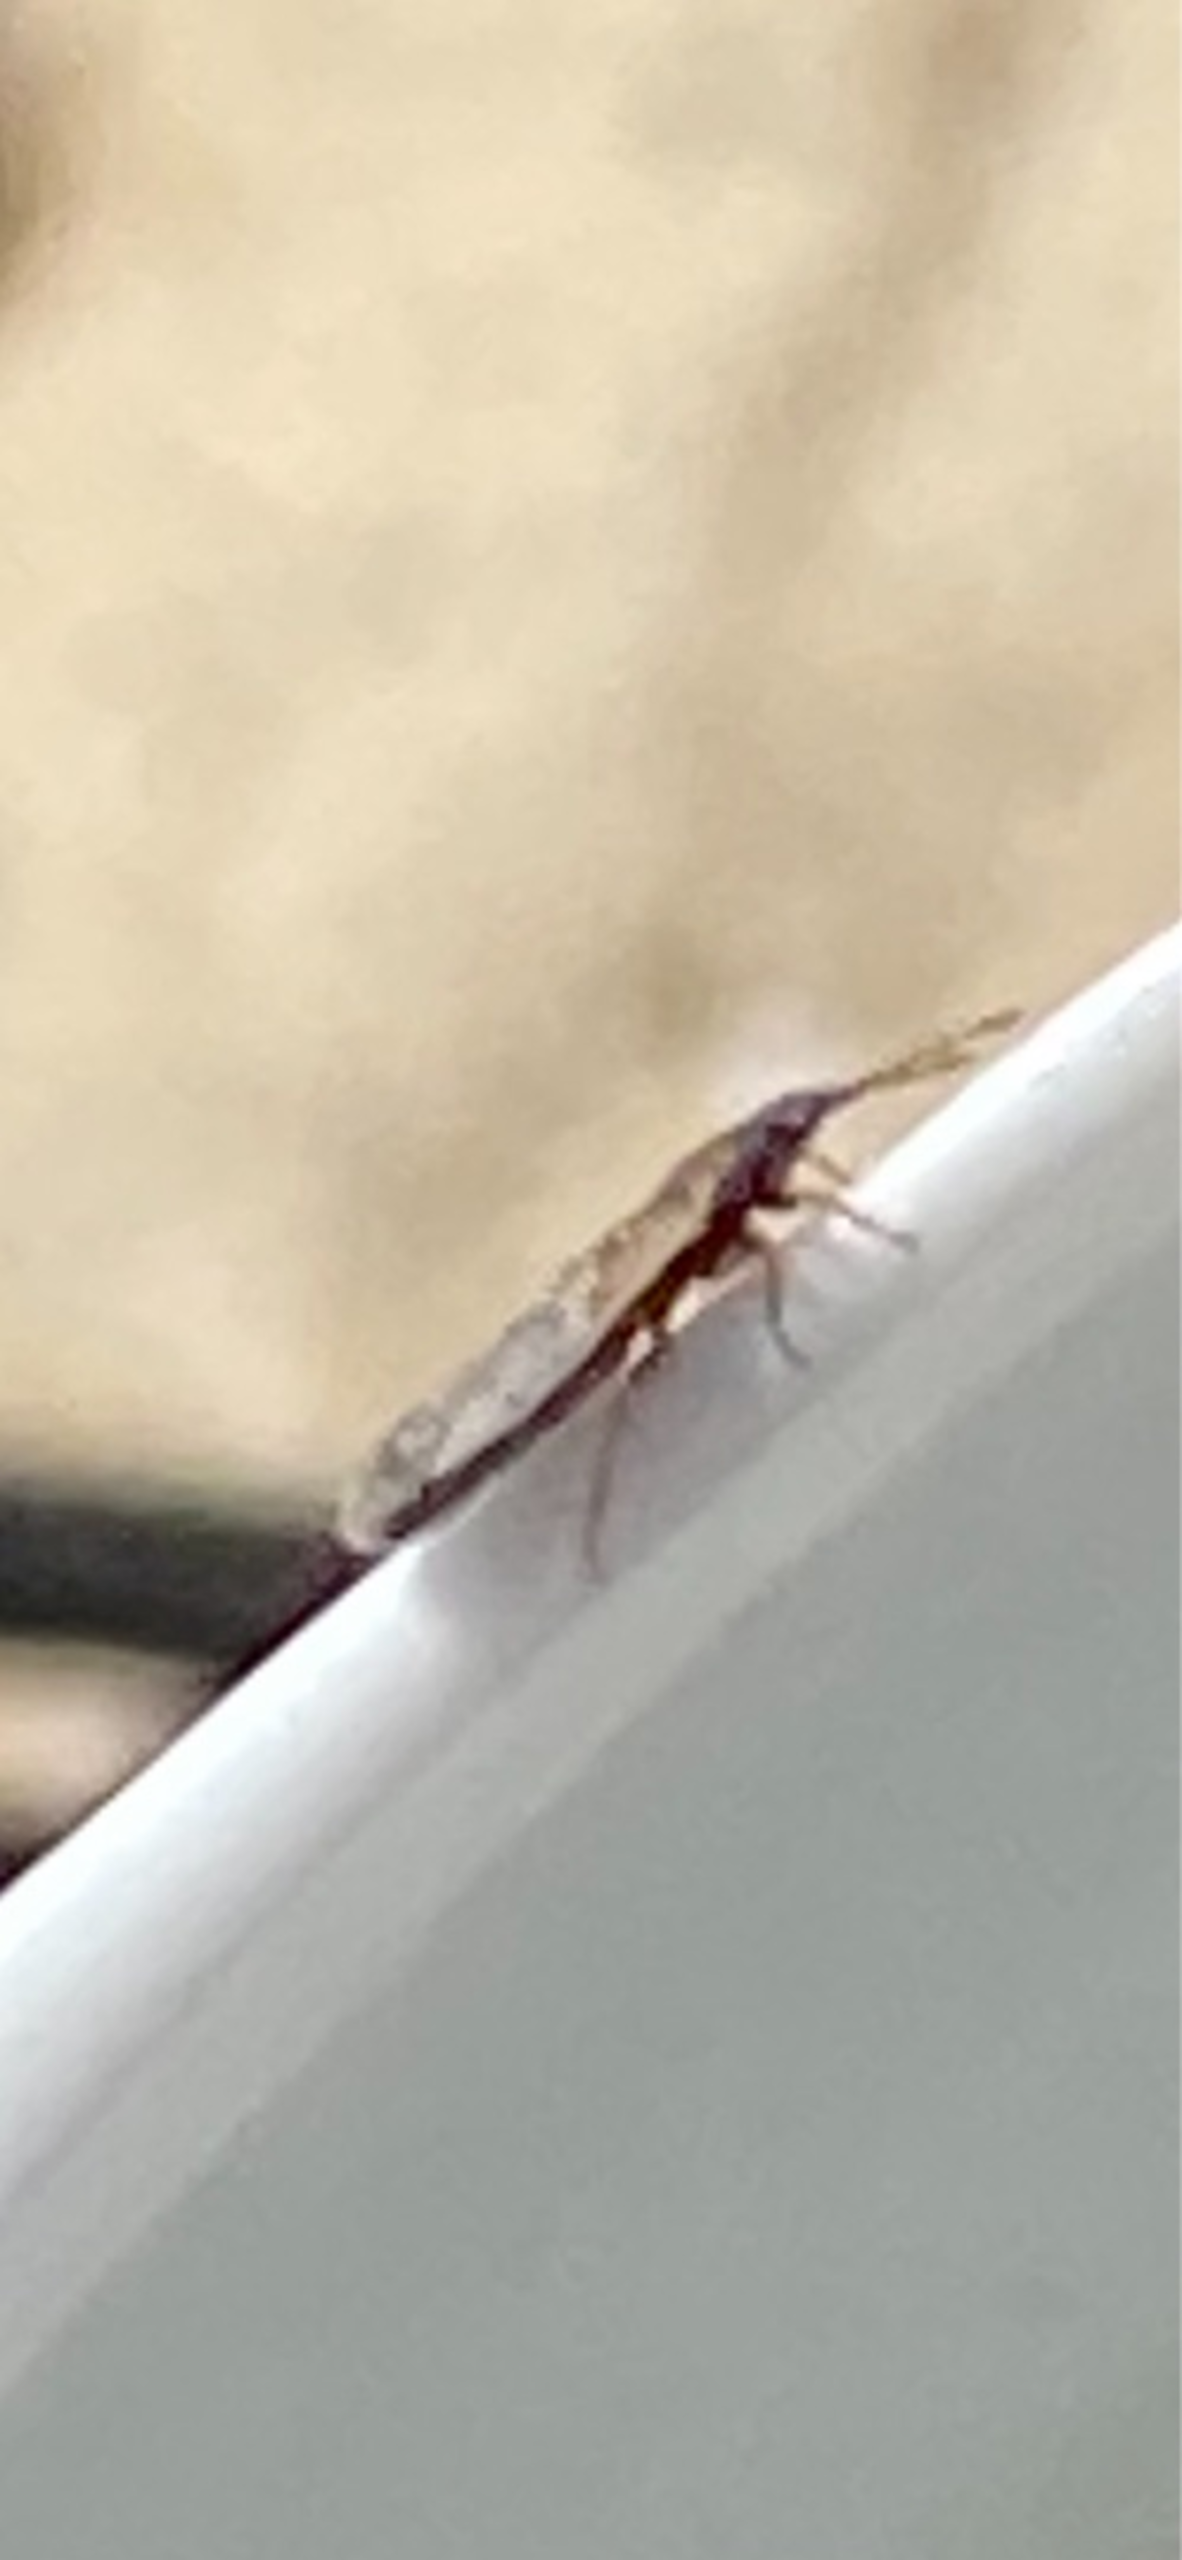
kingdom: Animalia
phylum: Arthropoda
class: Insecta
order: Hemiptera
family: Blissidae
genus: Ischnodemus
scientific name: Ischnodemus sabuleti
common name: Smaltæge
